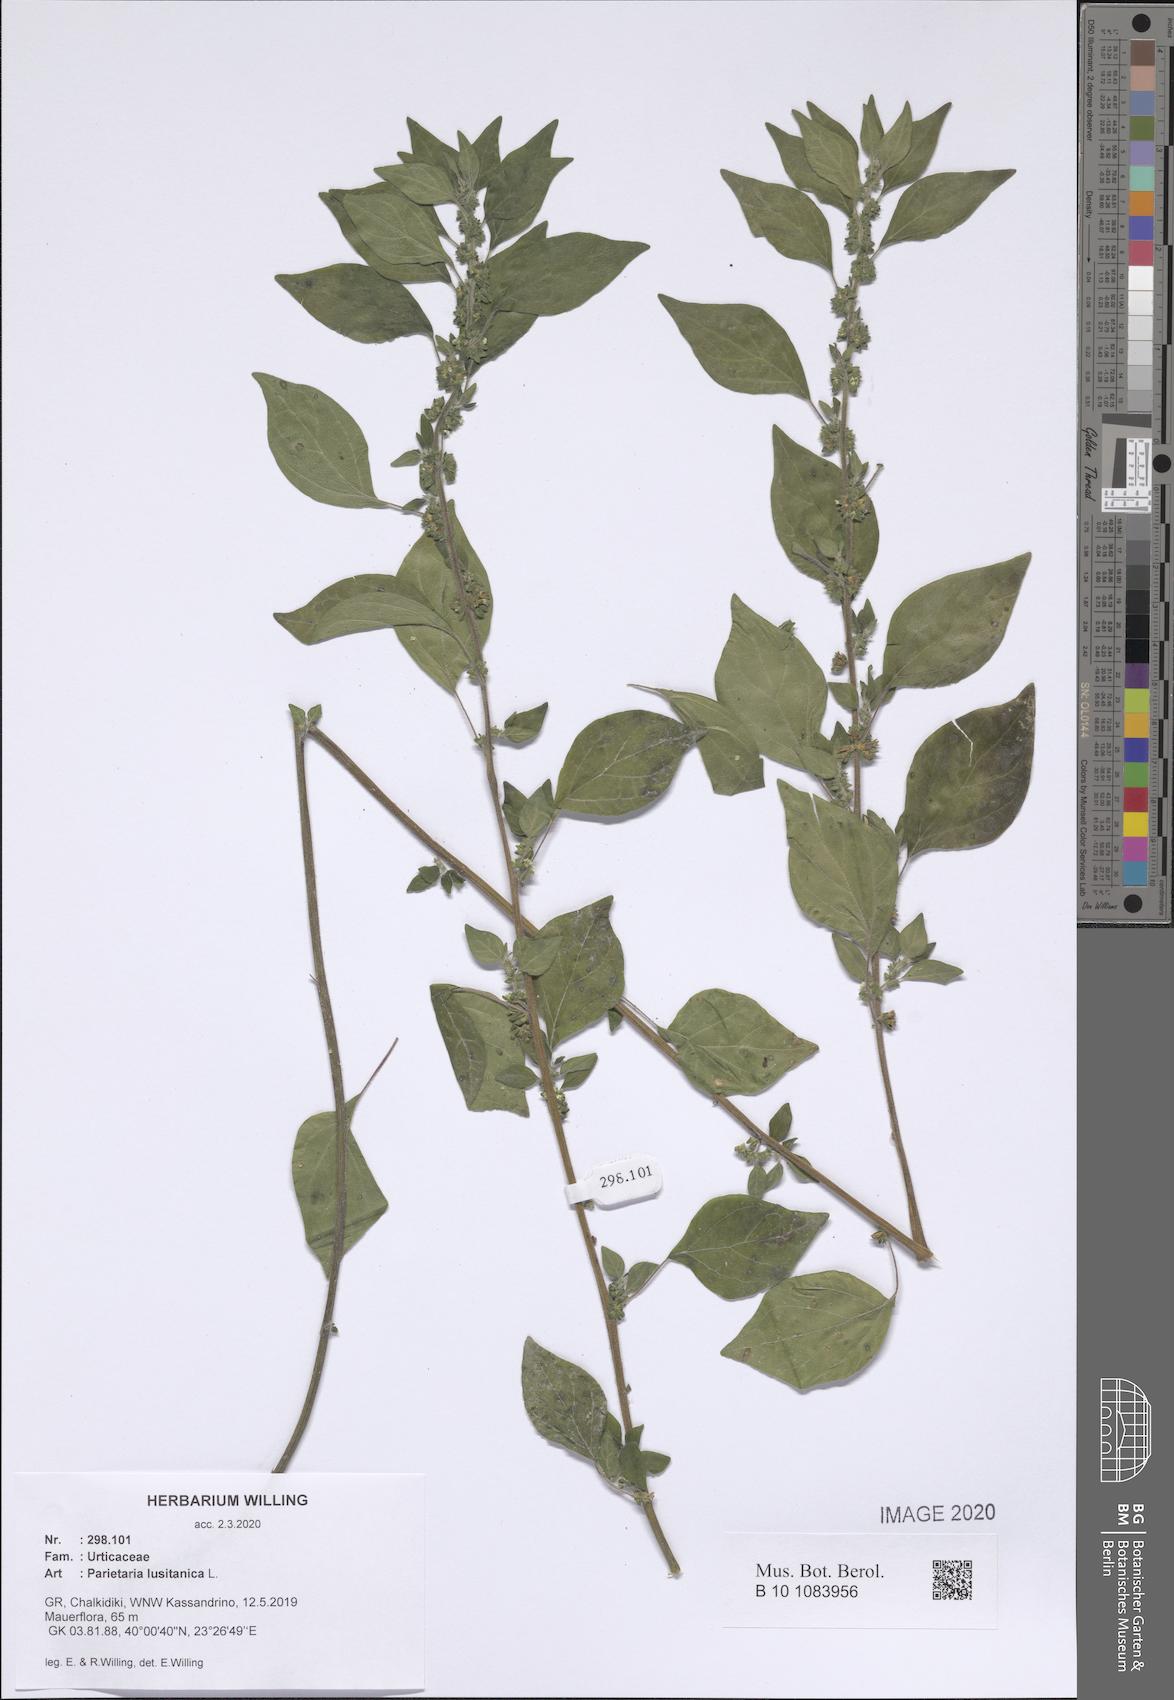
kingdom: Plantae
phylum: Tracheophyta
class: Magnoliopsida
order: Rosales
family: Urticaceae
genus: Parietaria
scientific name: Parietaria lusitanica
